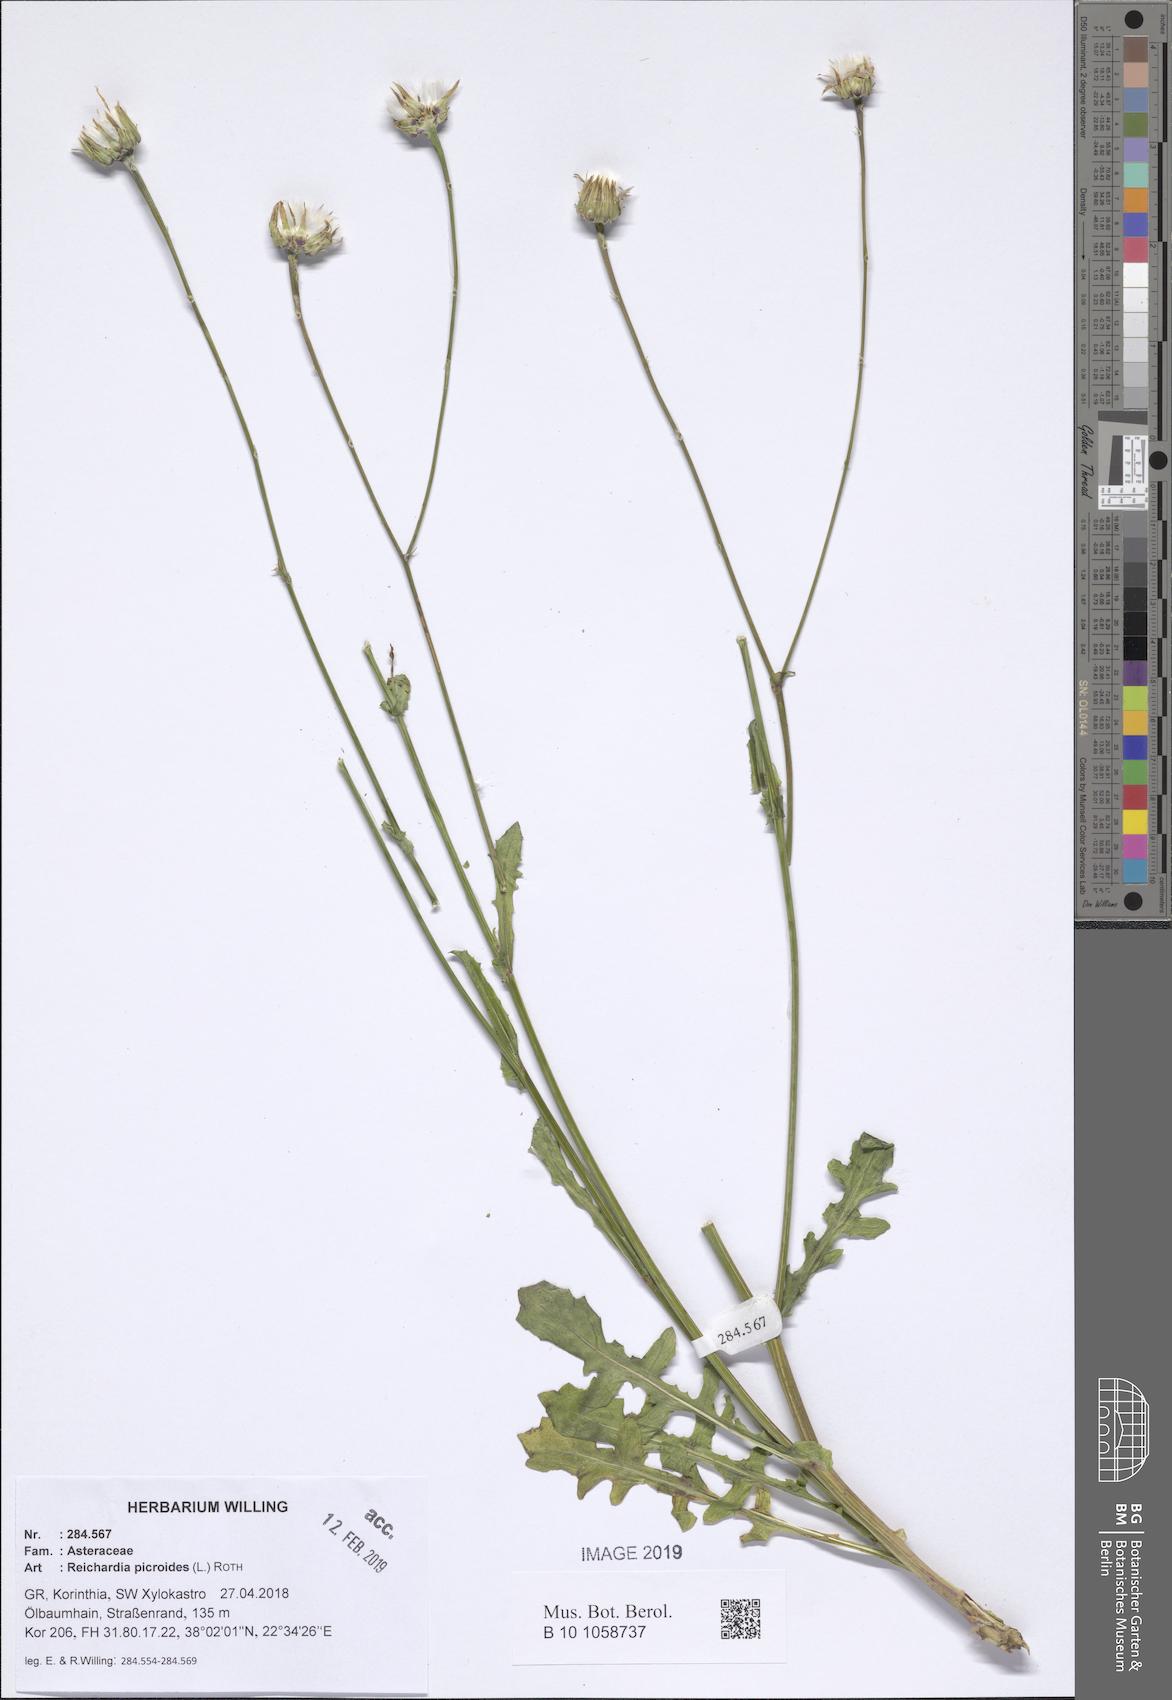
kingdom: Plantae
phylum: Tracheophyta
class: Magnoliopsida
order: Asterales
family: Asteraceae
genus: Reichardia
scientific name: Reichardia picroides
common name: Common brighteyes
